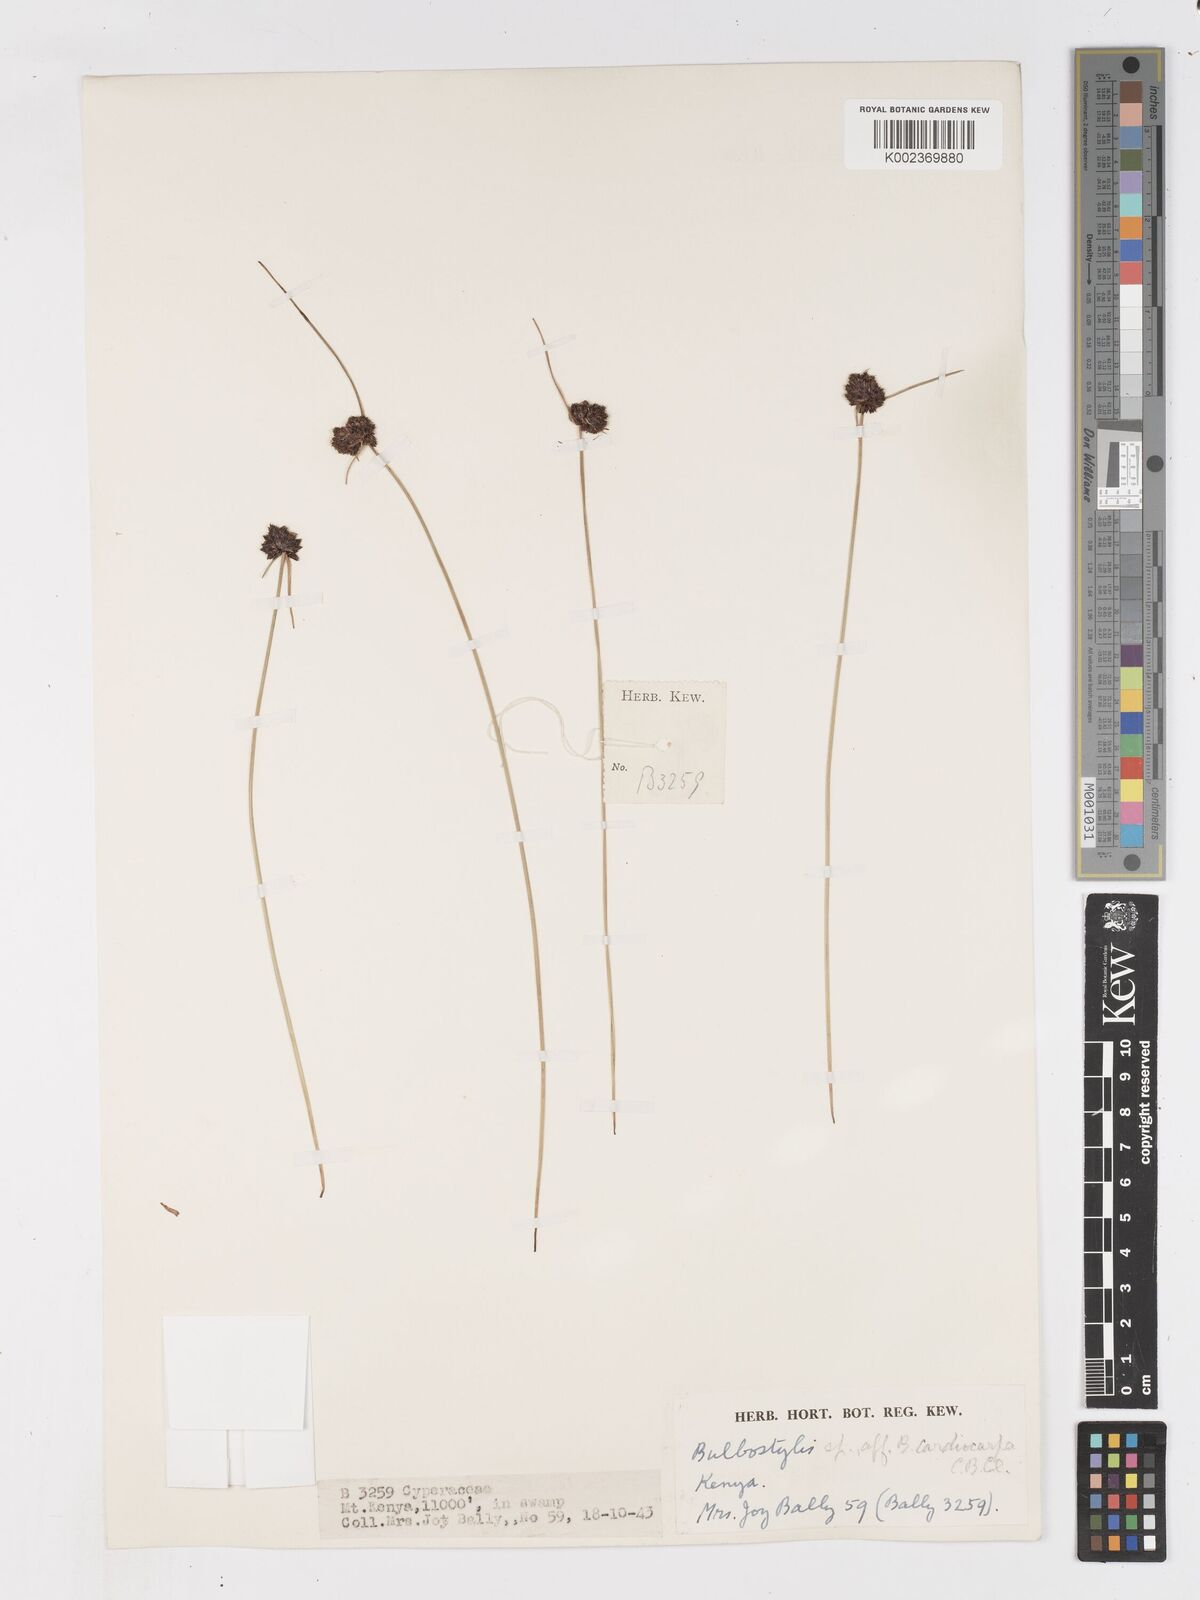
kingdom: Plantae
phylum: Tracheophyta
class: Liliopsida
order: Poales
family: Cyperaceae
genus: Ficinia
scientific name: Ficinia gracilis
